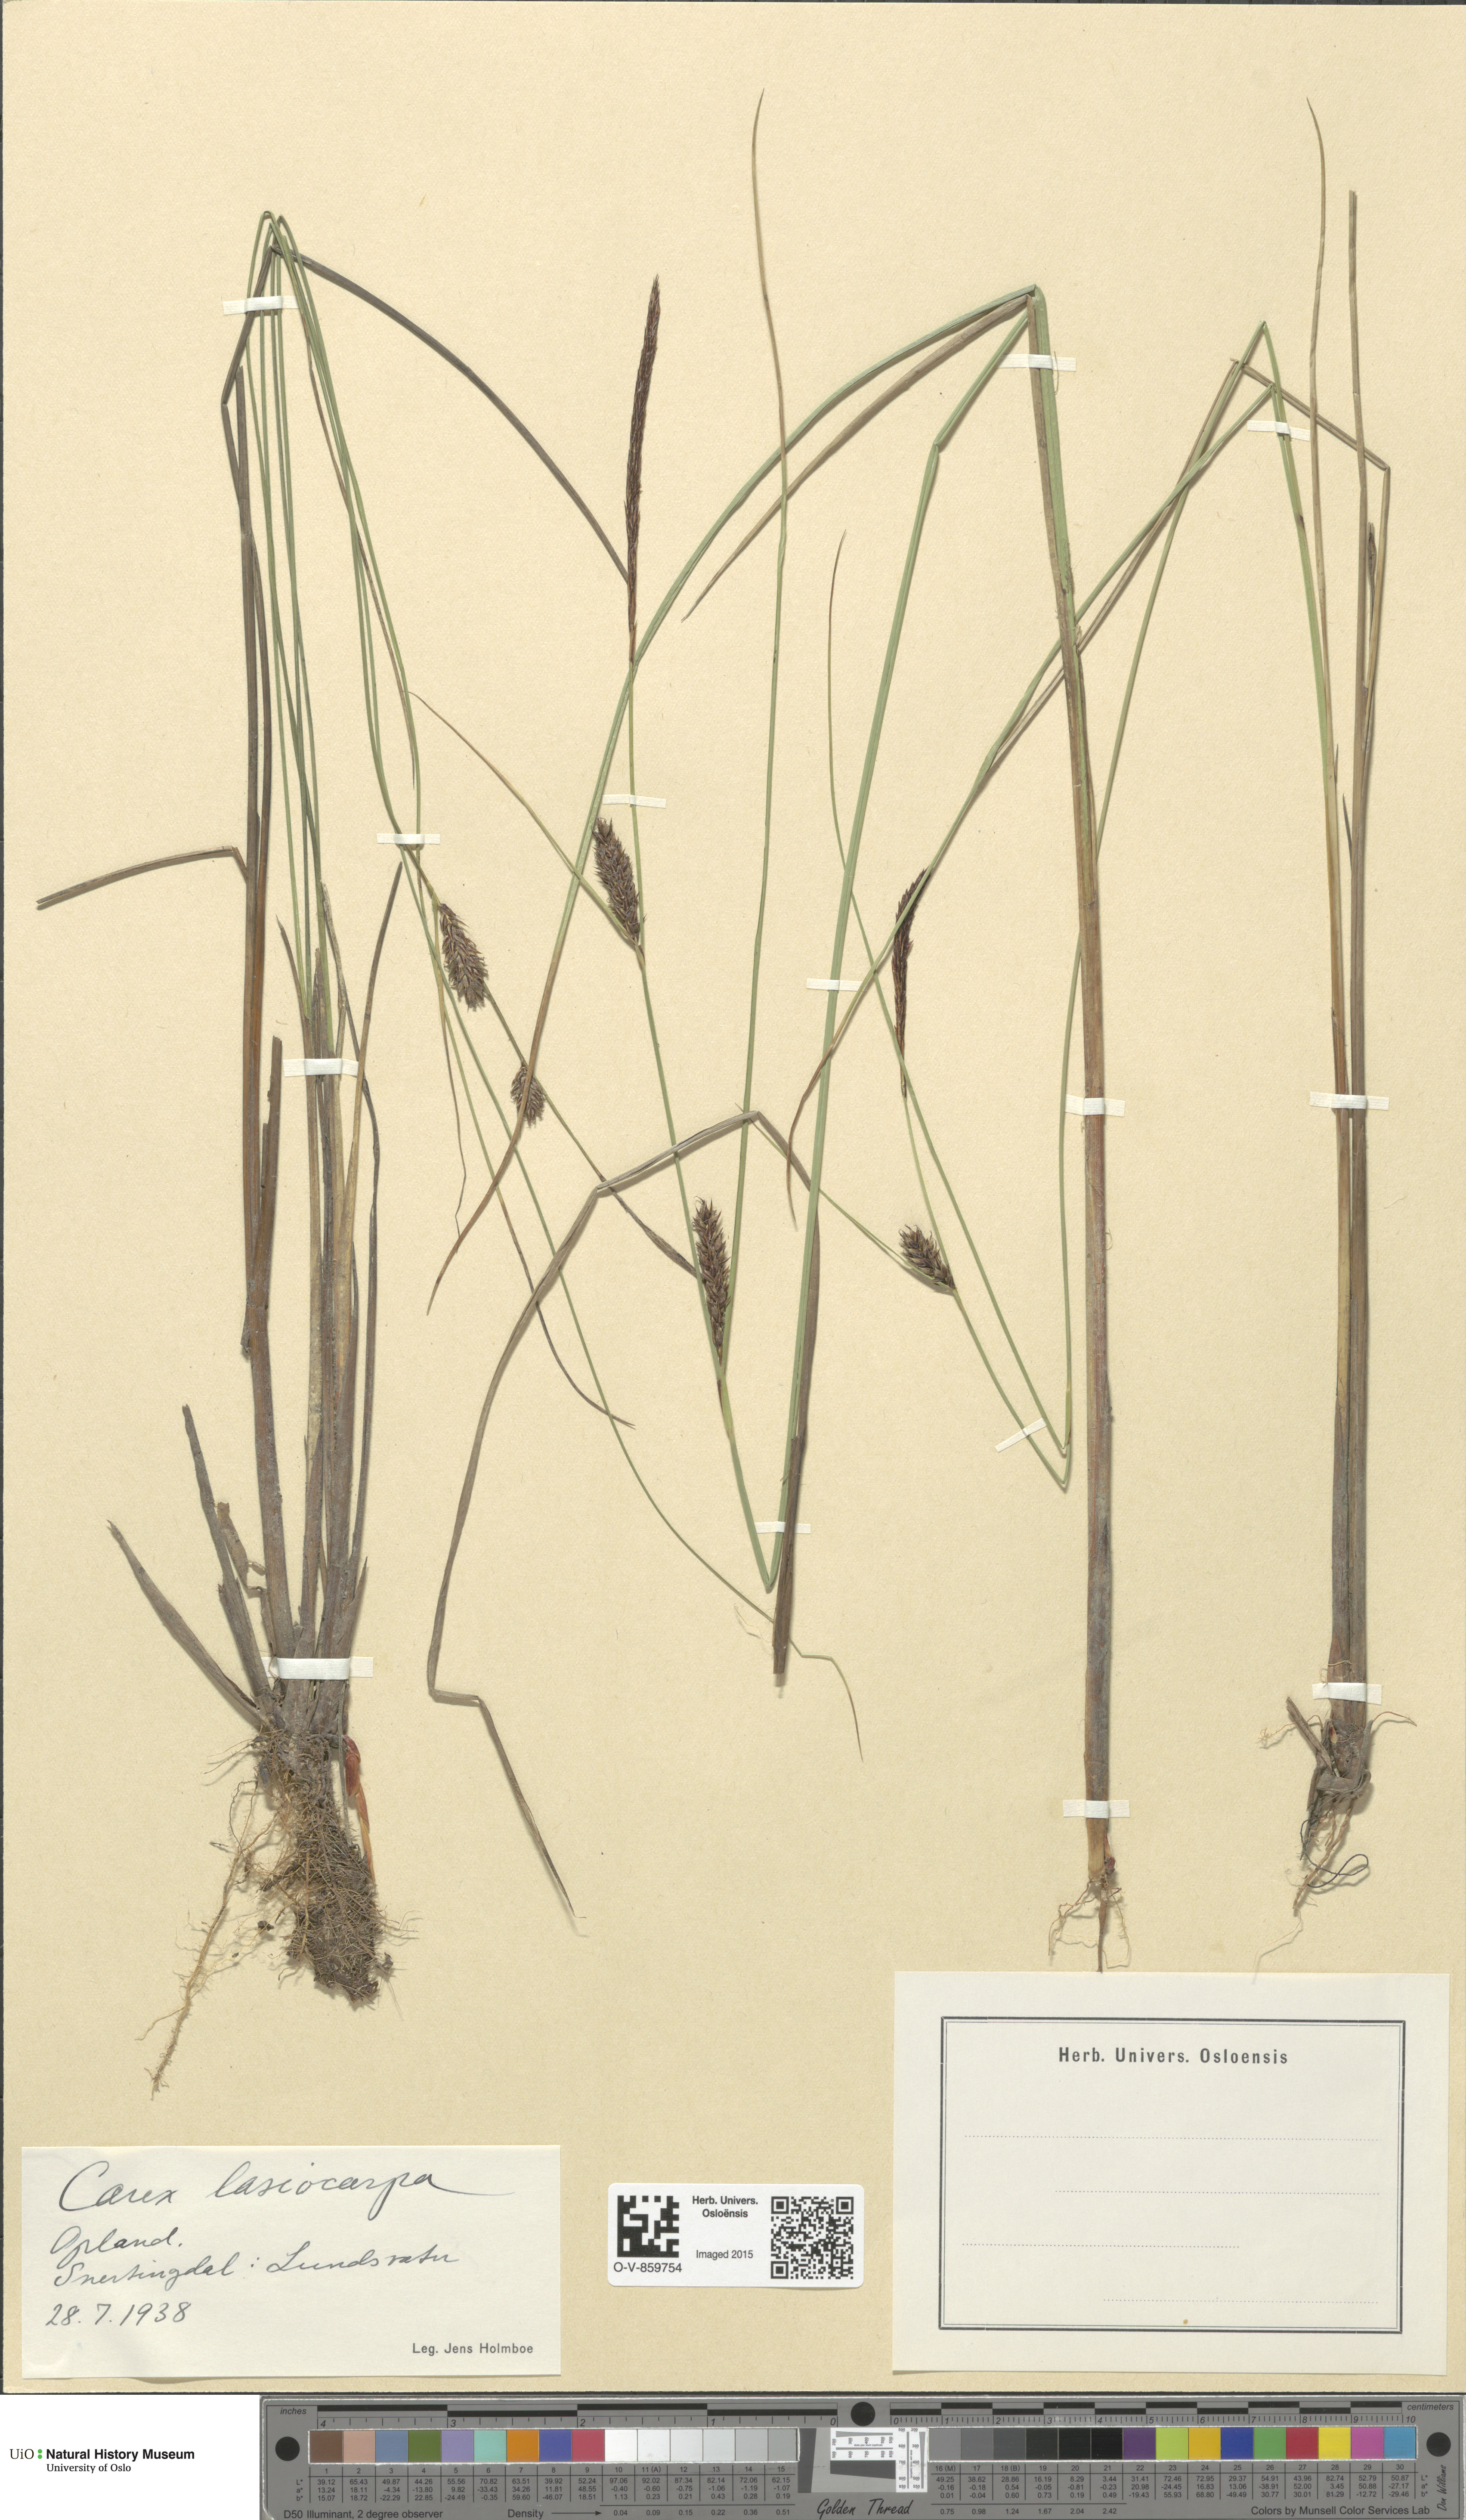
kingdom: Plantae
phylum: Tracheophyta
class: Liliopsida
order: Poales
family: Cyperaceae
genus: Carex
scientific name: Carex lasiocarpa
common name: Slender sedge
